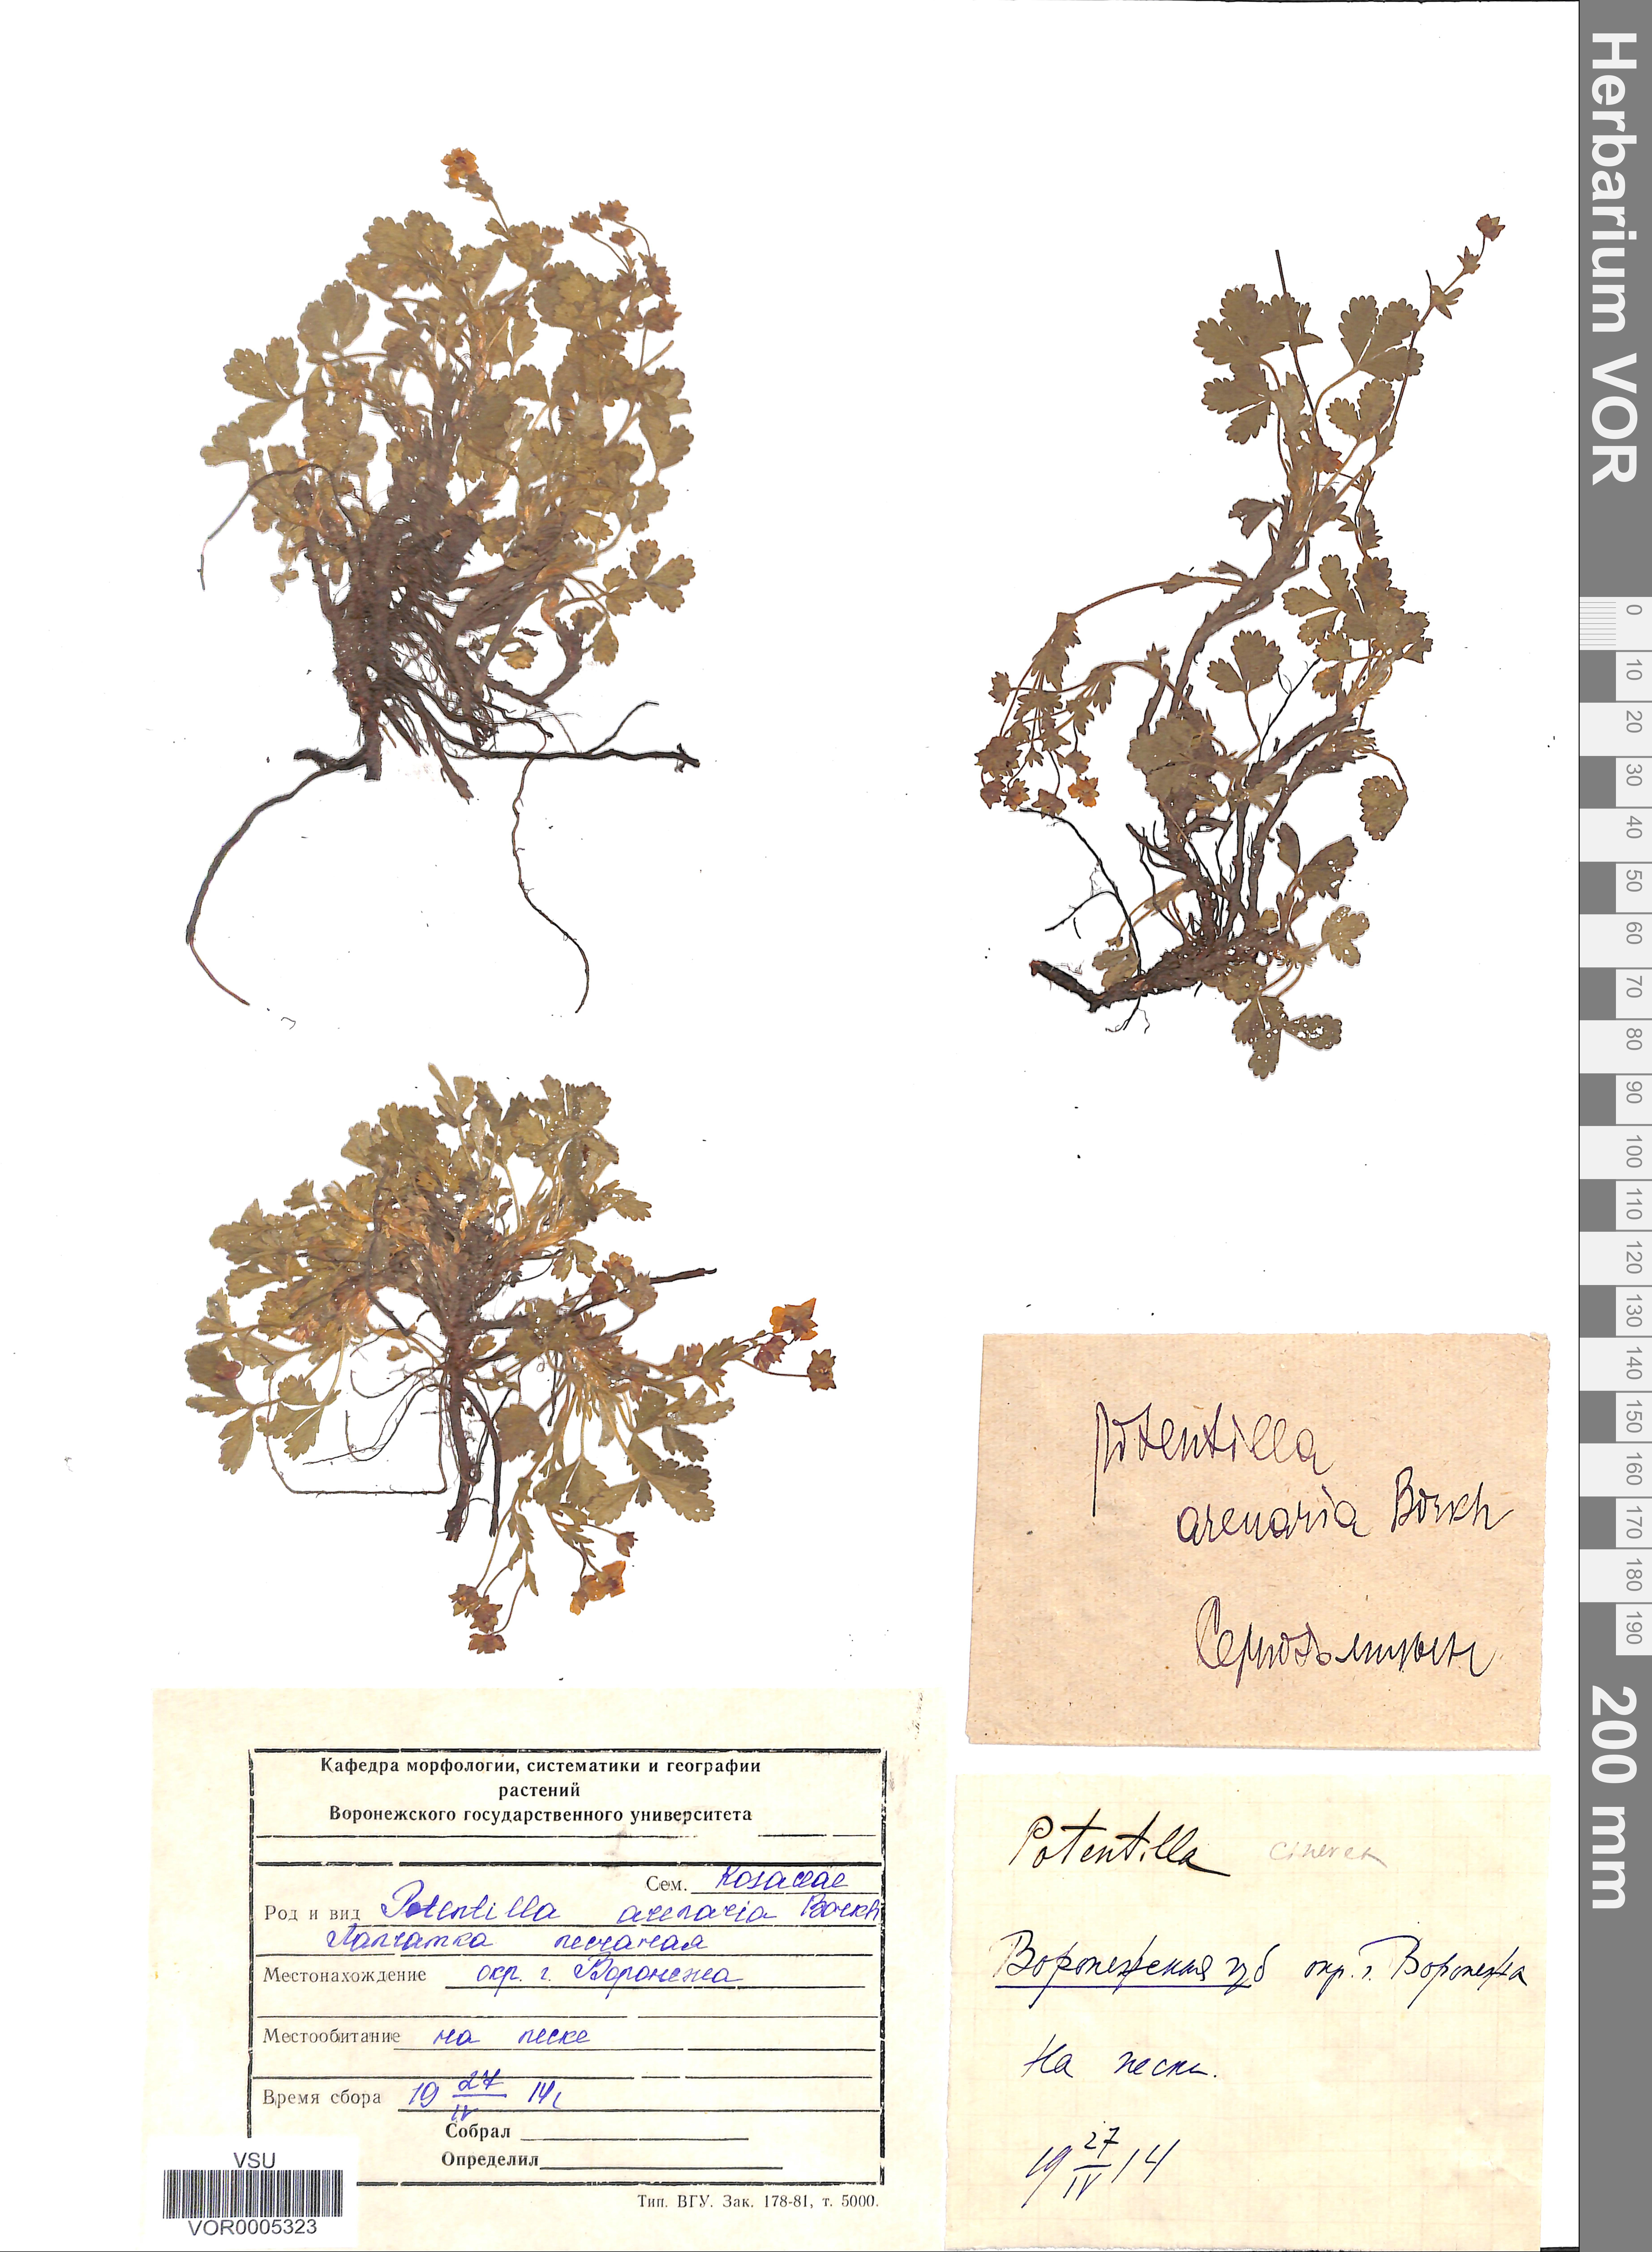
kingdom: Plantae
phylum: Tracheophyta
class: Magnoliopsida
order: Rosales
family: Rosaceae
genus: Potentilla
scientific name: Potentilla cinerea
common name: Ashy cinquefoil
